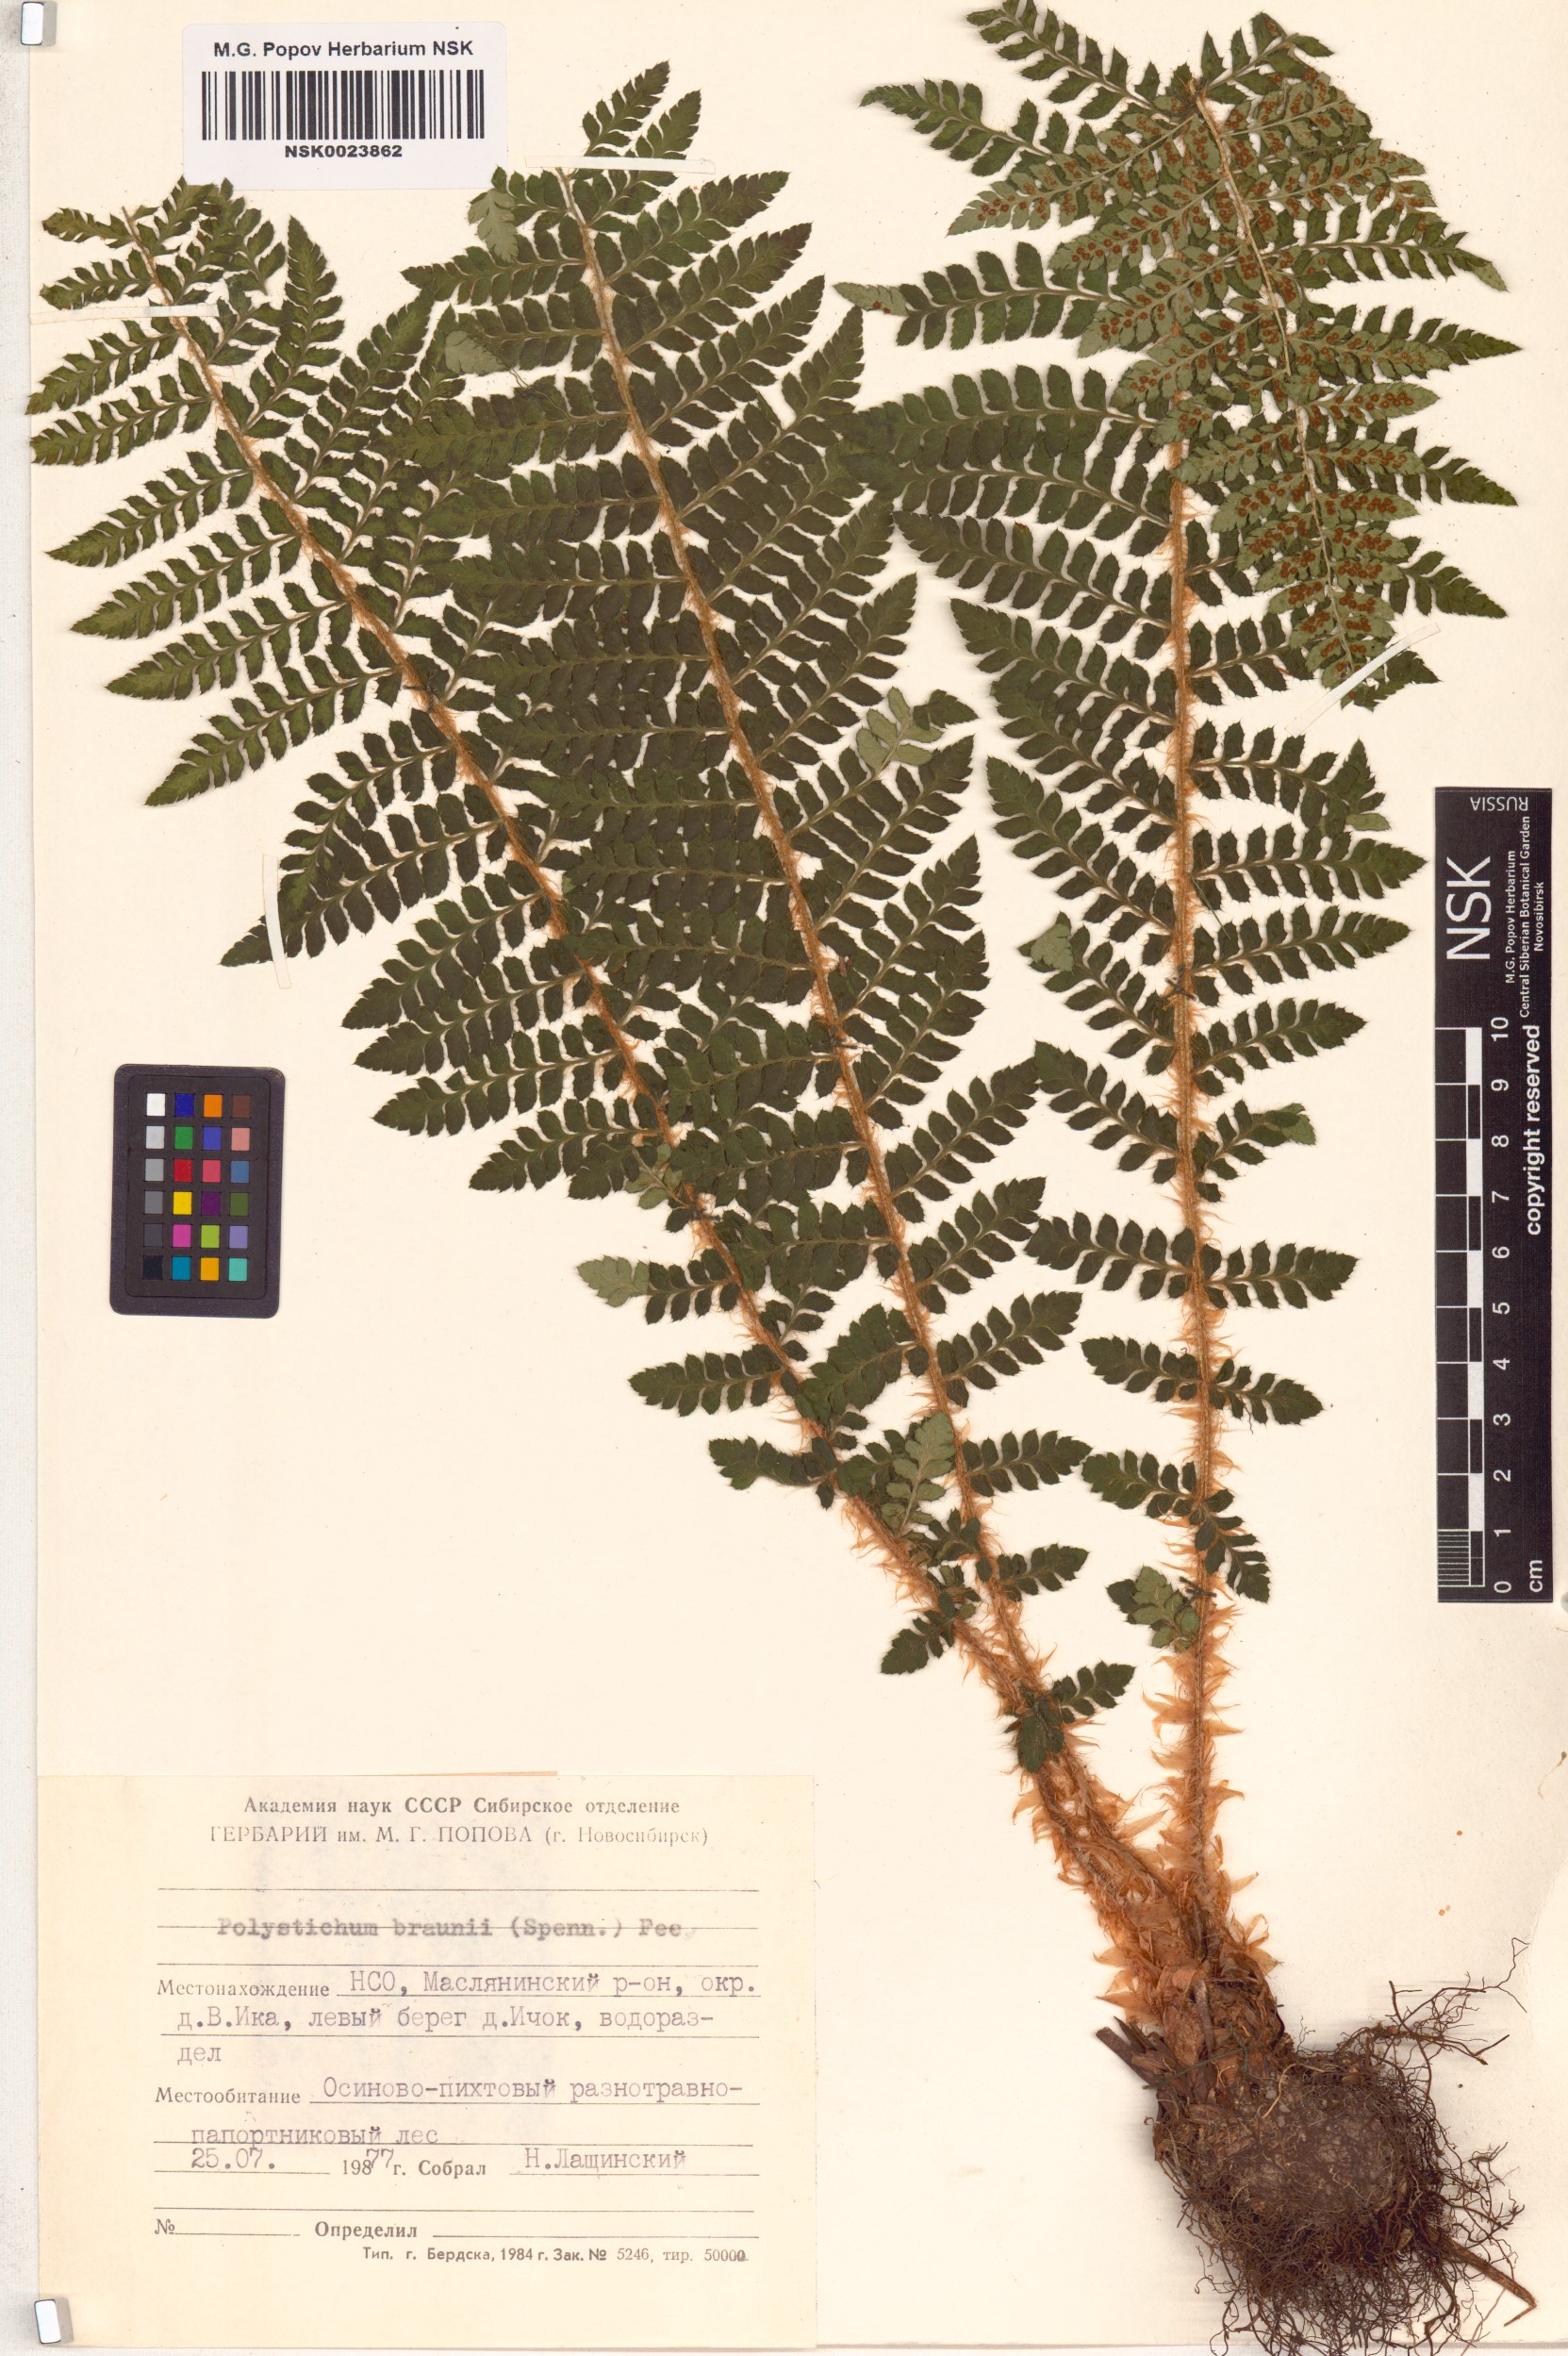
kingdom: Plantae
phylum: Tracheophyta
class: Polypodiopsida
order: Polypodiales
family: Dryopteridaceae
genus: Polystichum
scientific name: Polystichum braunii
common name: Braun's holly fern
